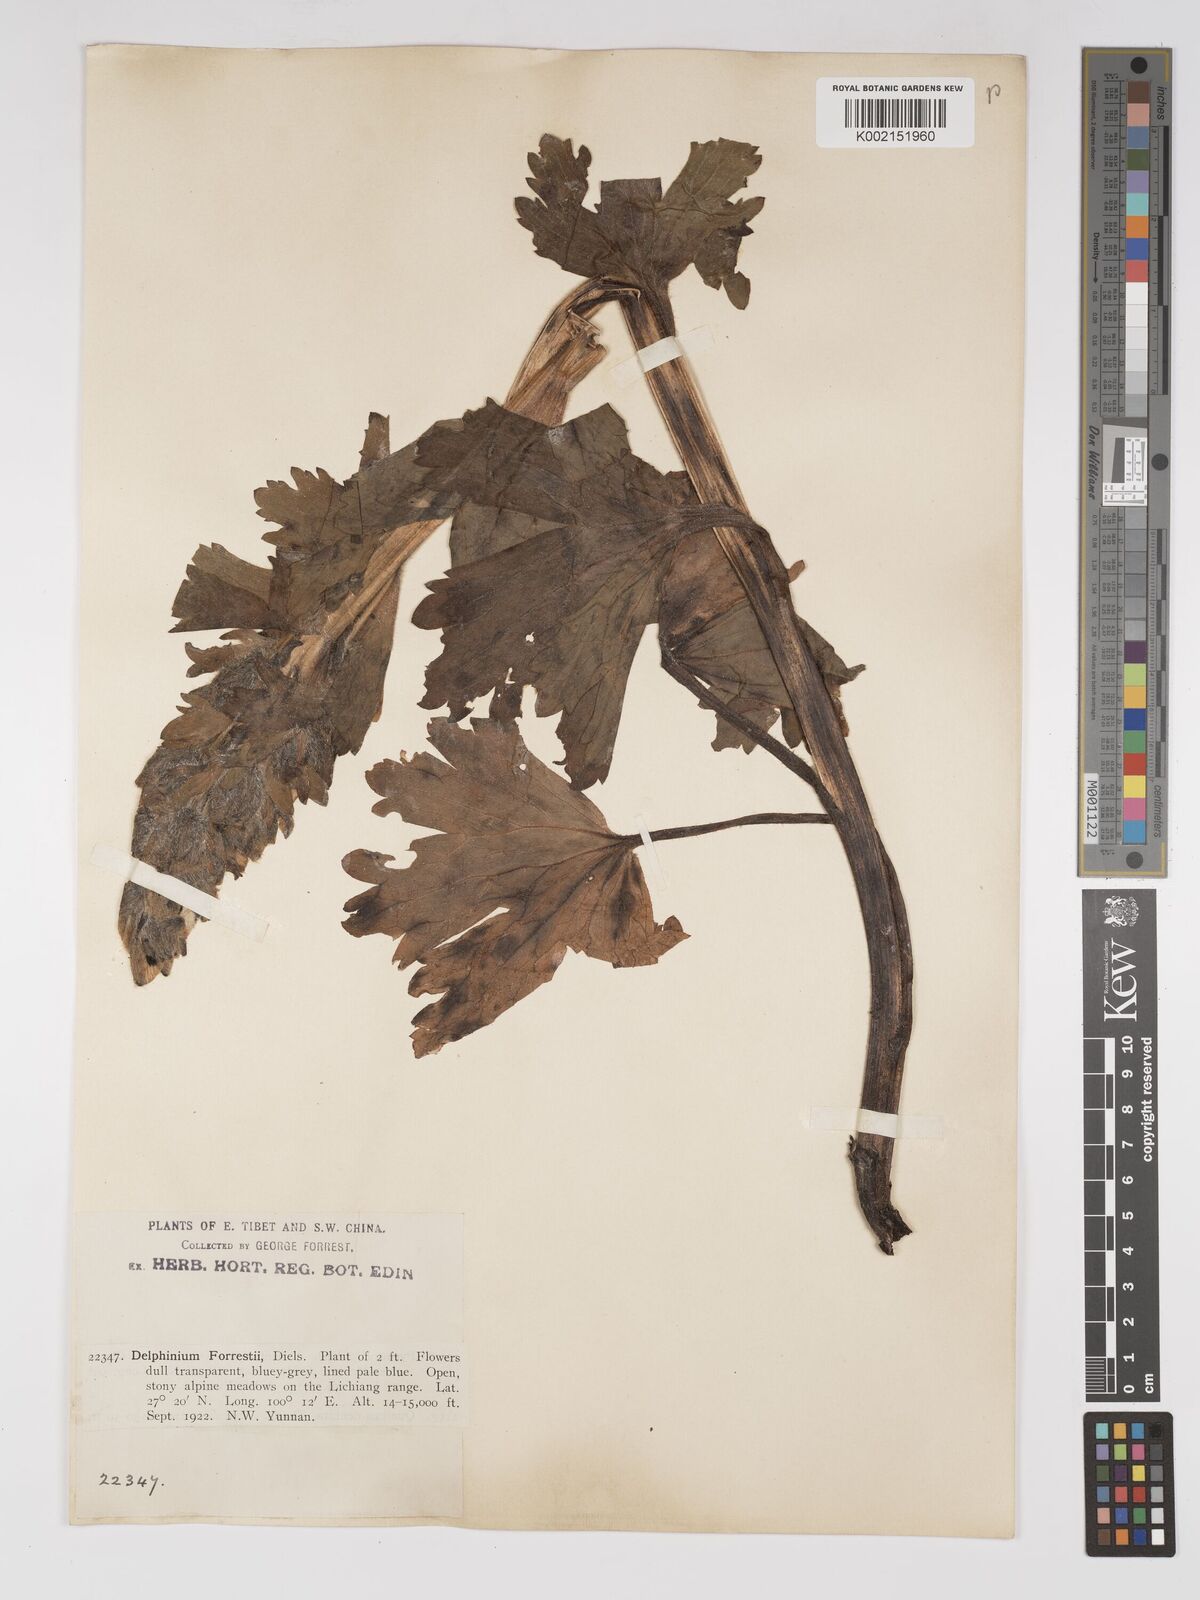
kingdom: Plantae
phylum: Tracheophyta
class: Magnoliopsida
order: Ranunculales
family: Ranunculaceae
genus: Delphinium
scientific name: Delphinium trichophorum
